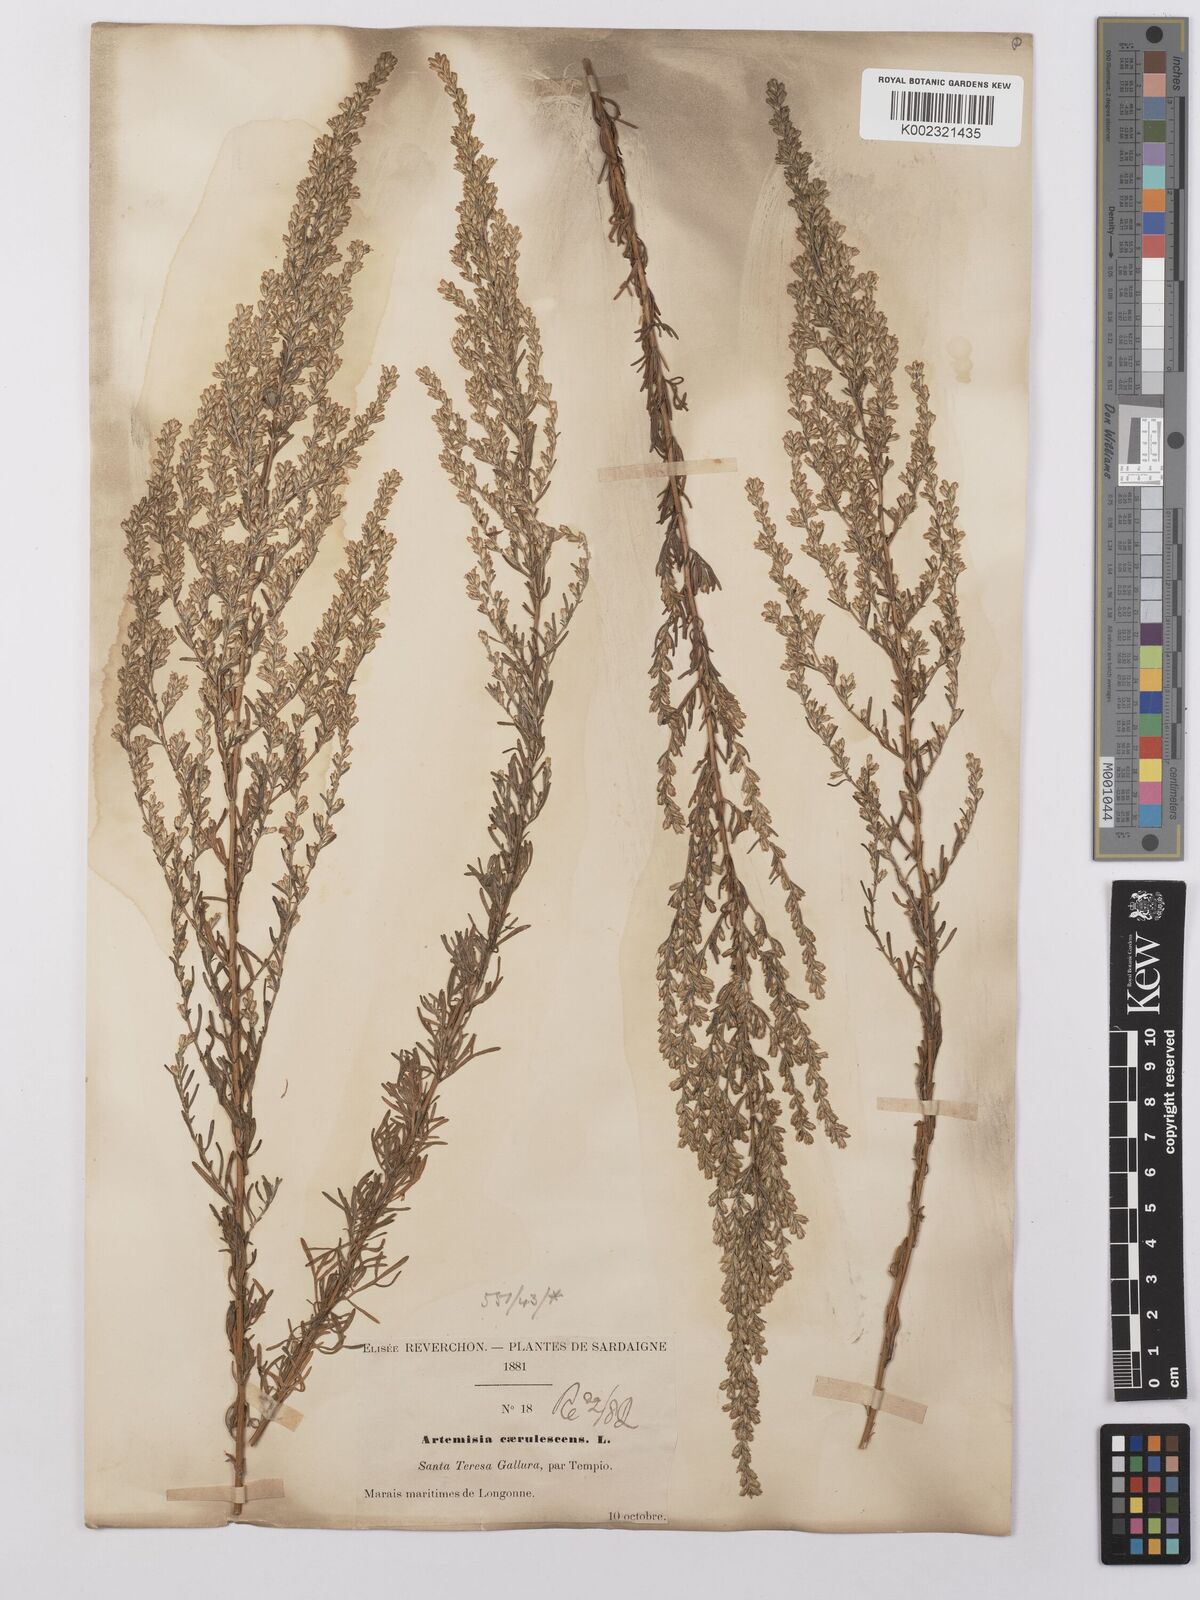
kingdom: Plantae
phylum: Tracheophyta
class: Magnoliopsida
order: Asterales
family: Asteraceae
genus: Artemisia
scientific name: Artemisia caerulescens
